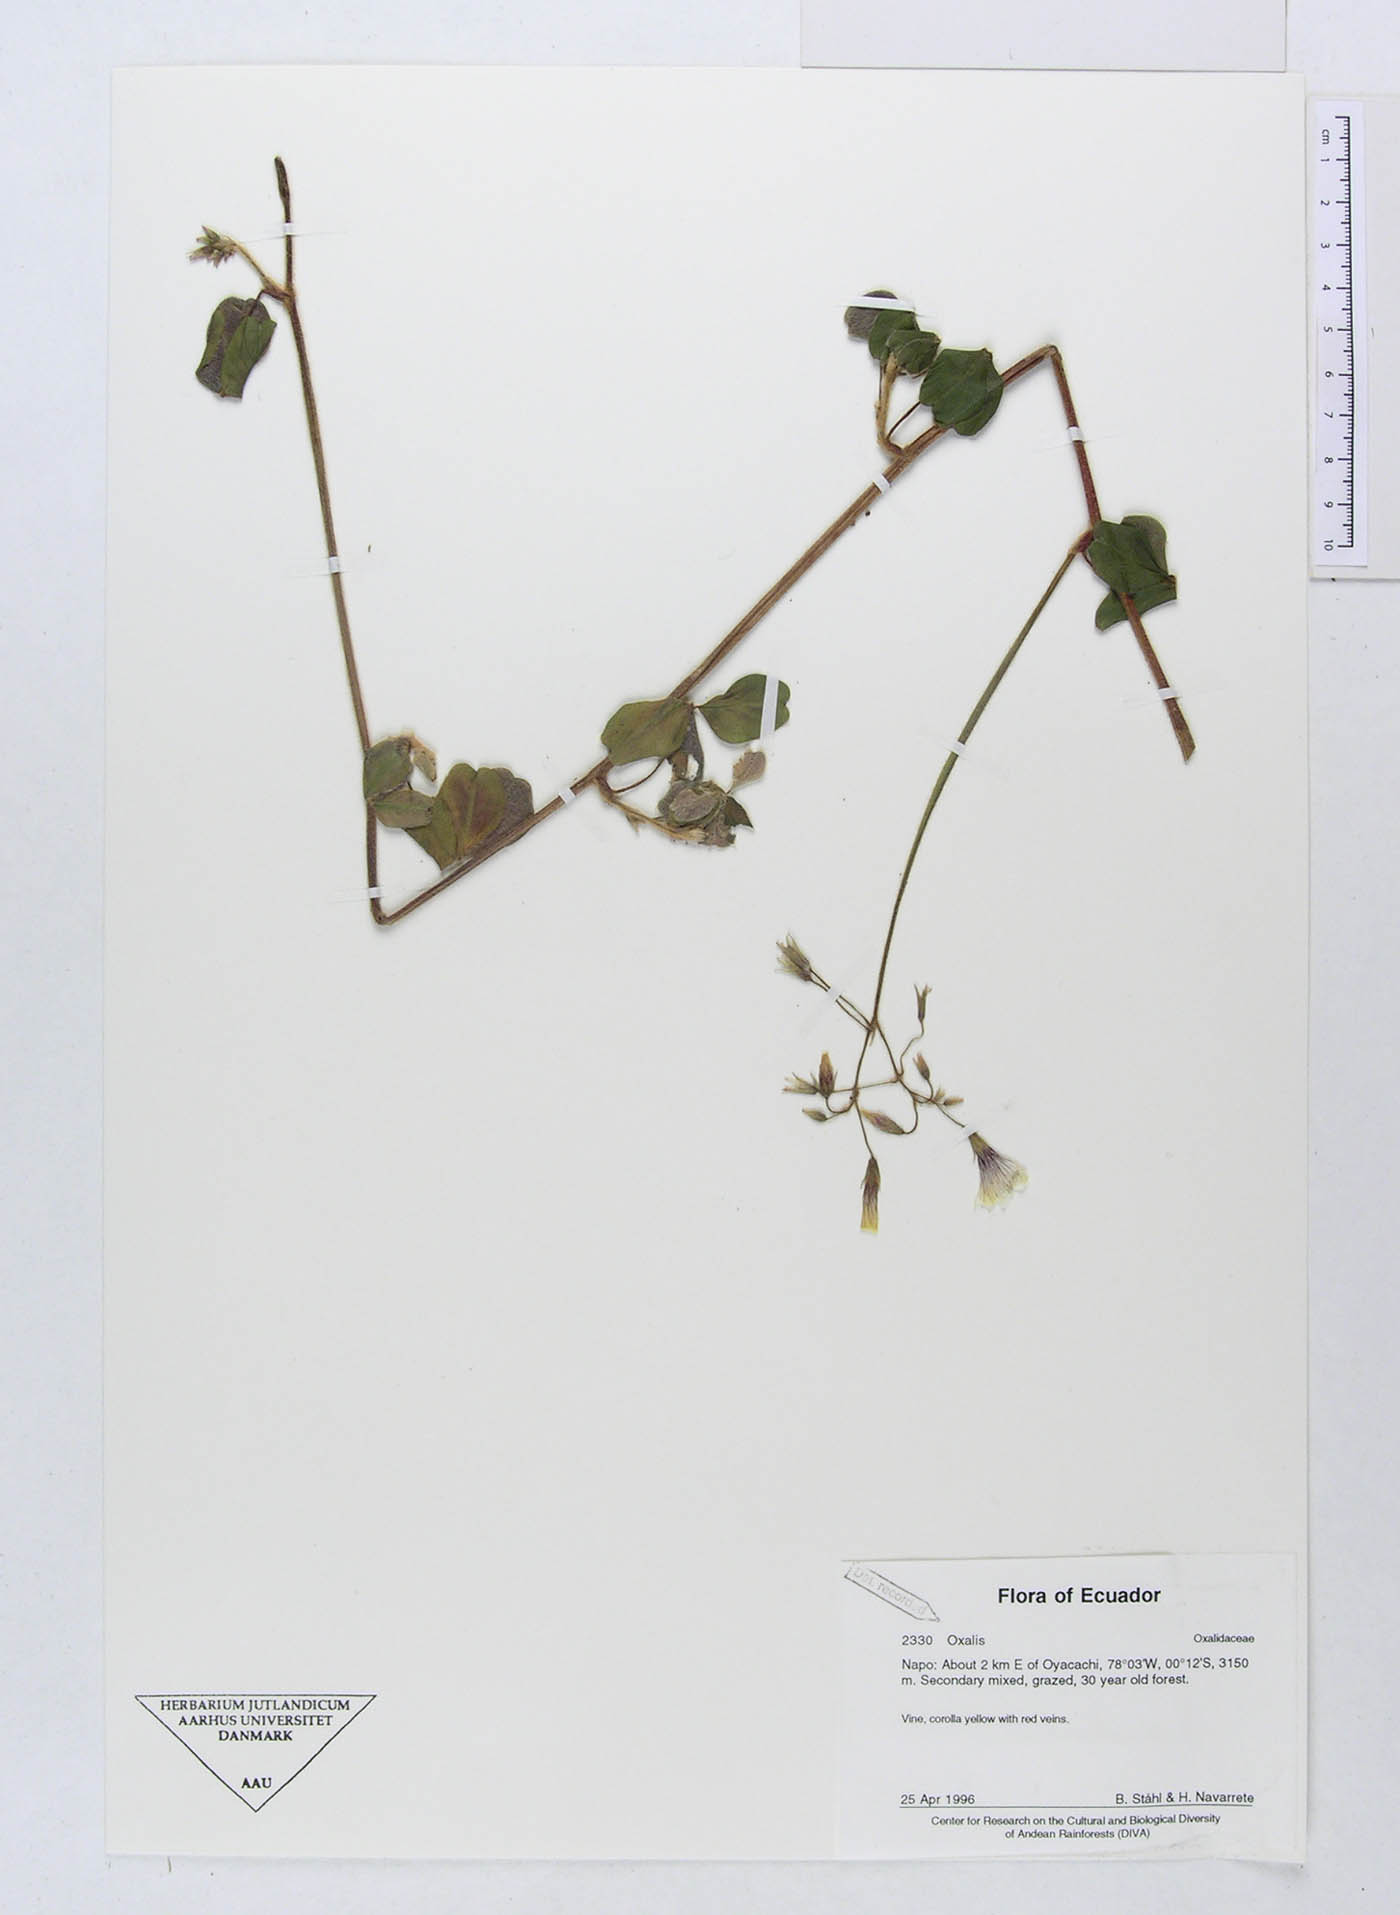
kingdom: Plantae
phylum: Tracheophyta
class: Magnoliopsida
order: Oxalidales
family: Oxalidaceae
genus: Oxalis
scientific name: Oxalis
